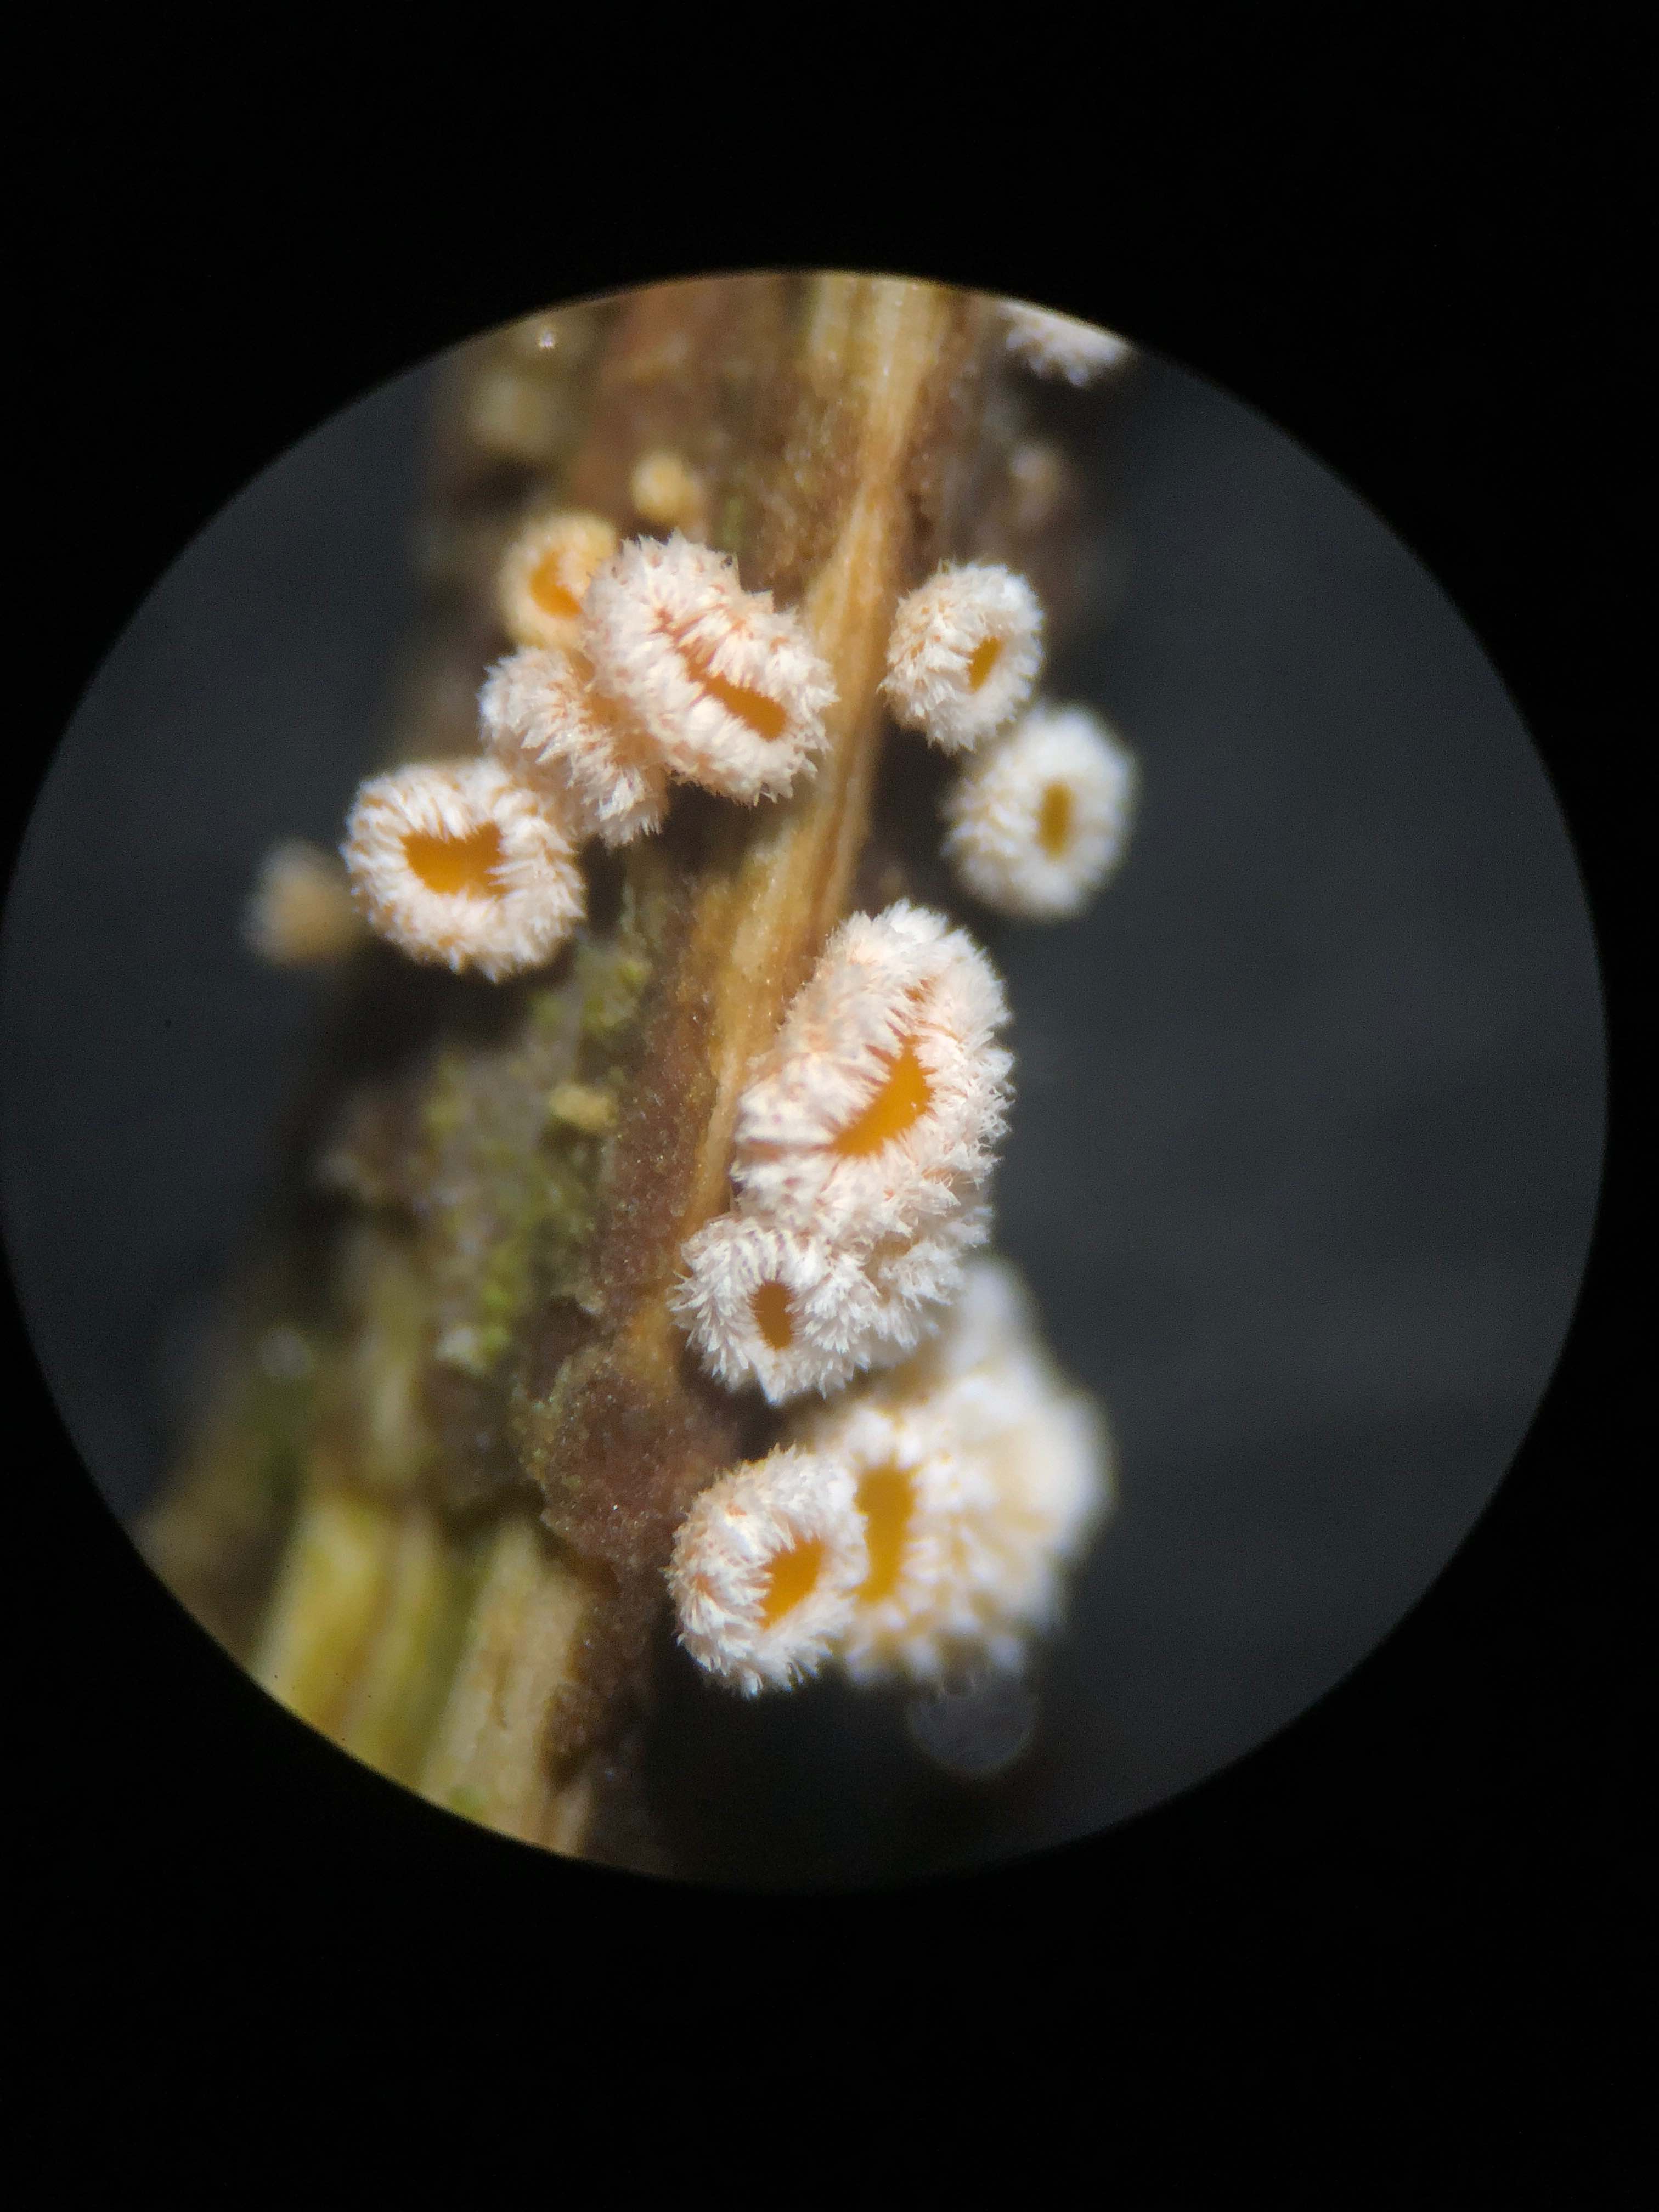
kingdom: Fungi
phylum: Ascomycota
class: Leotiomycetes
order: Helotiales
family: Lachnaceae
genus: Capitotricha
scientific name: Capitotricha bicolor
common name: prægtig frynseskive
